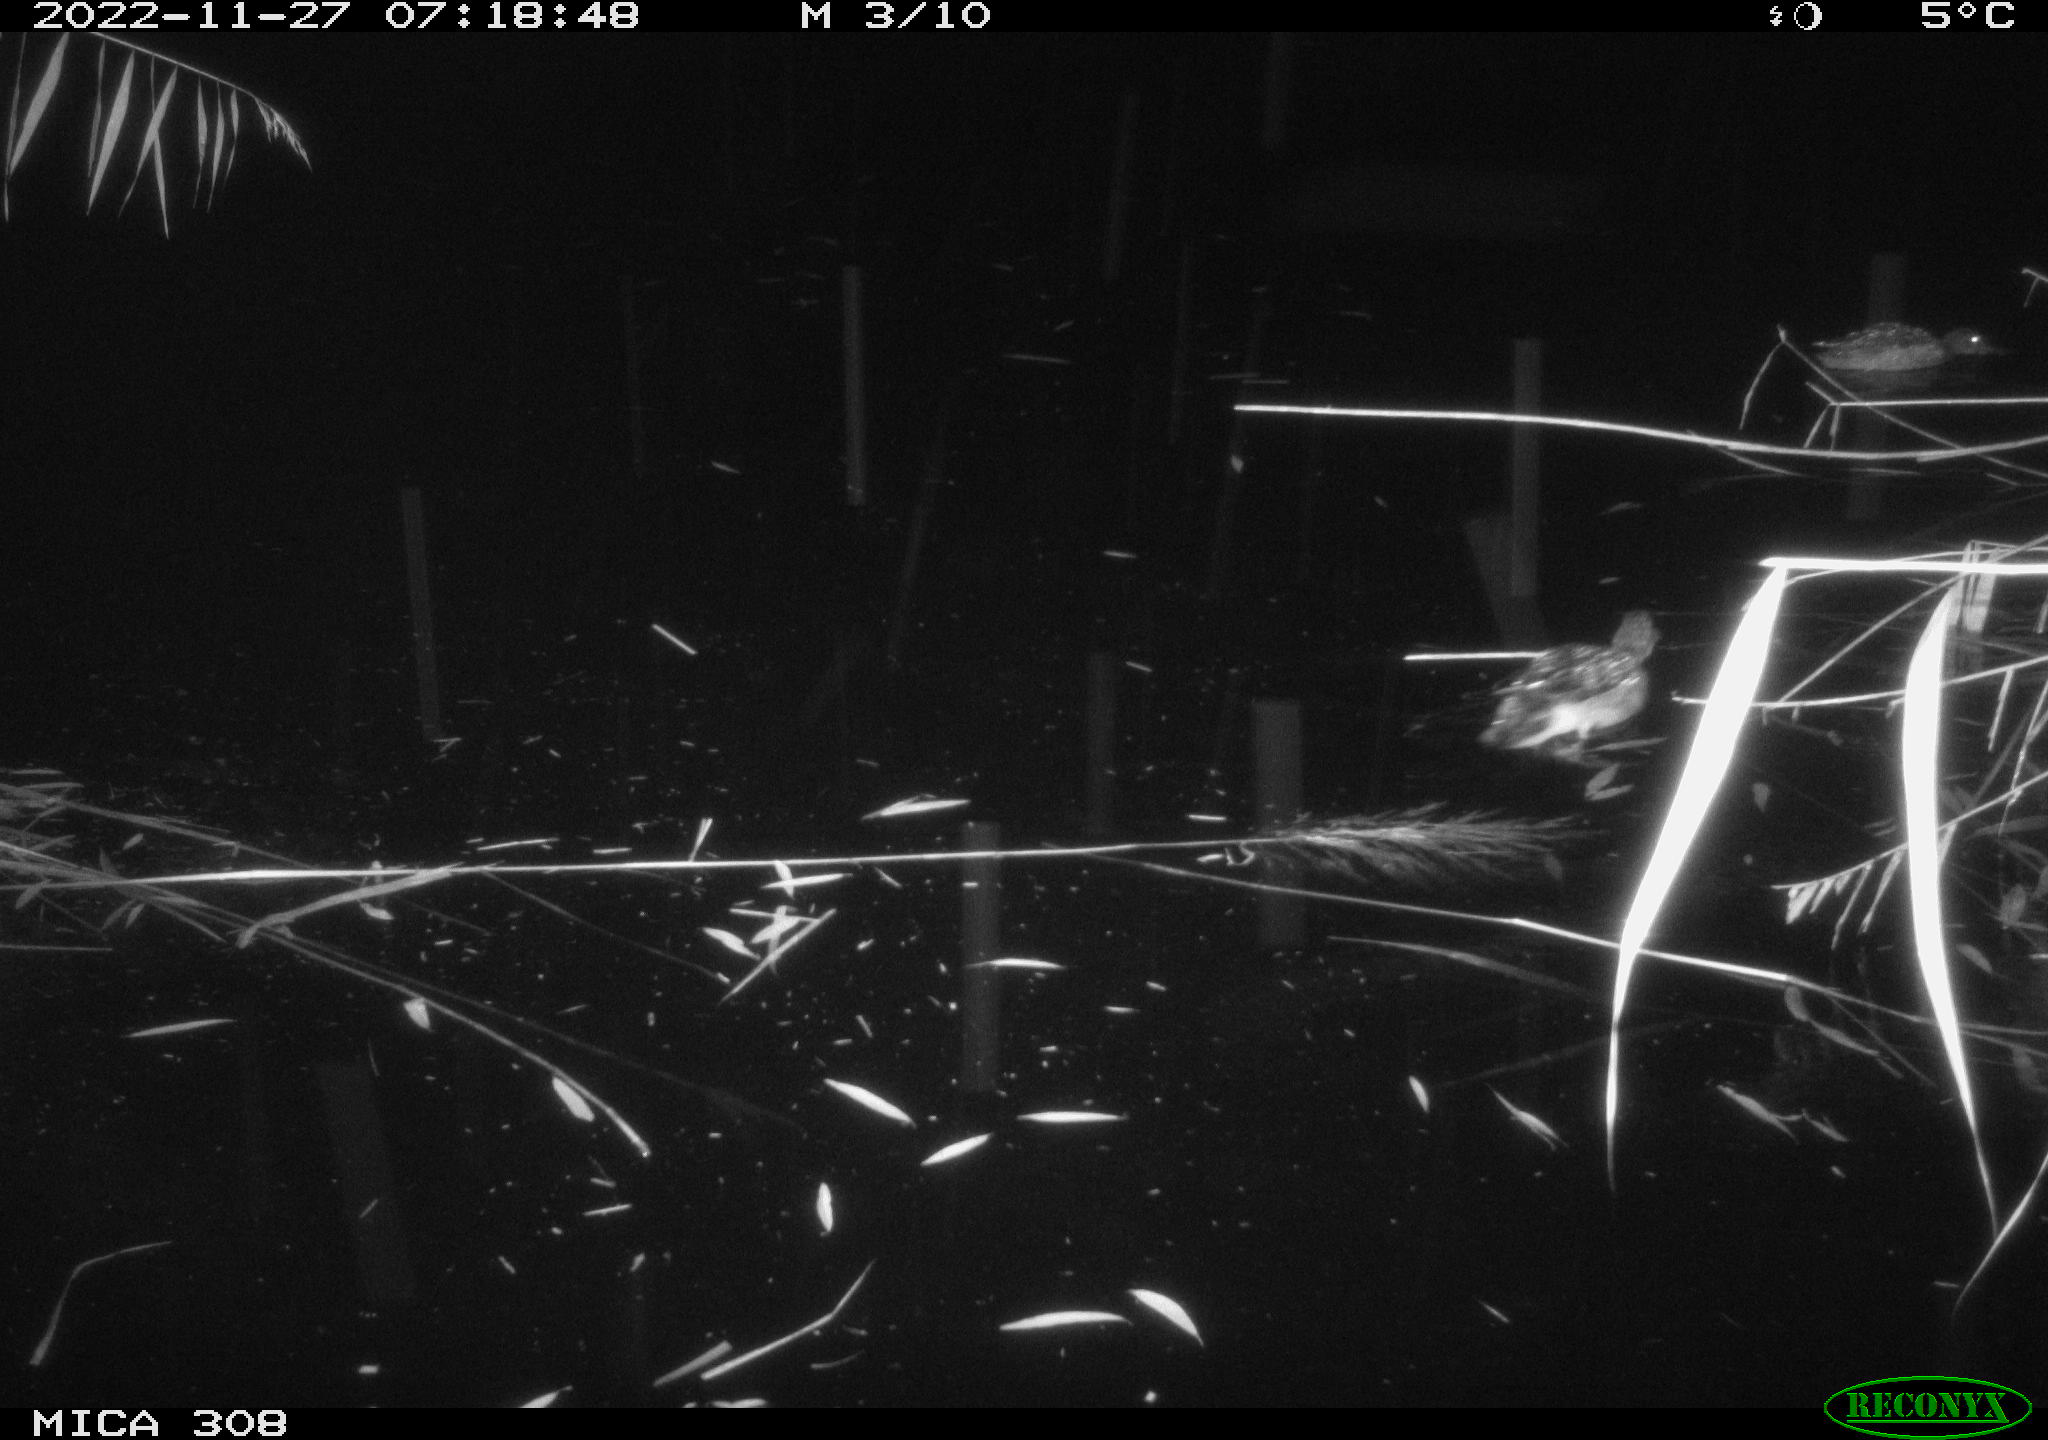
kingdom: Animalia
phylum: Chordata
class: Aves
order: Anseriformes
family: Anatidae
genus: Anas
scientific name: Anas
